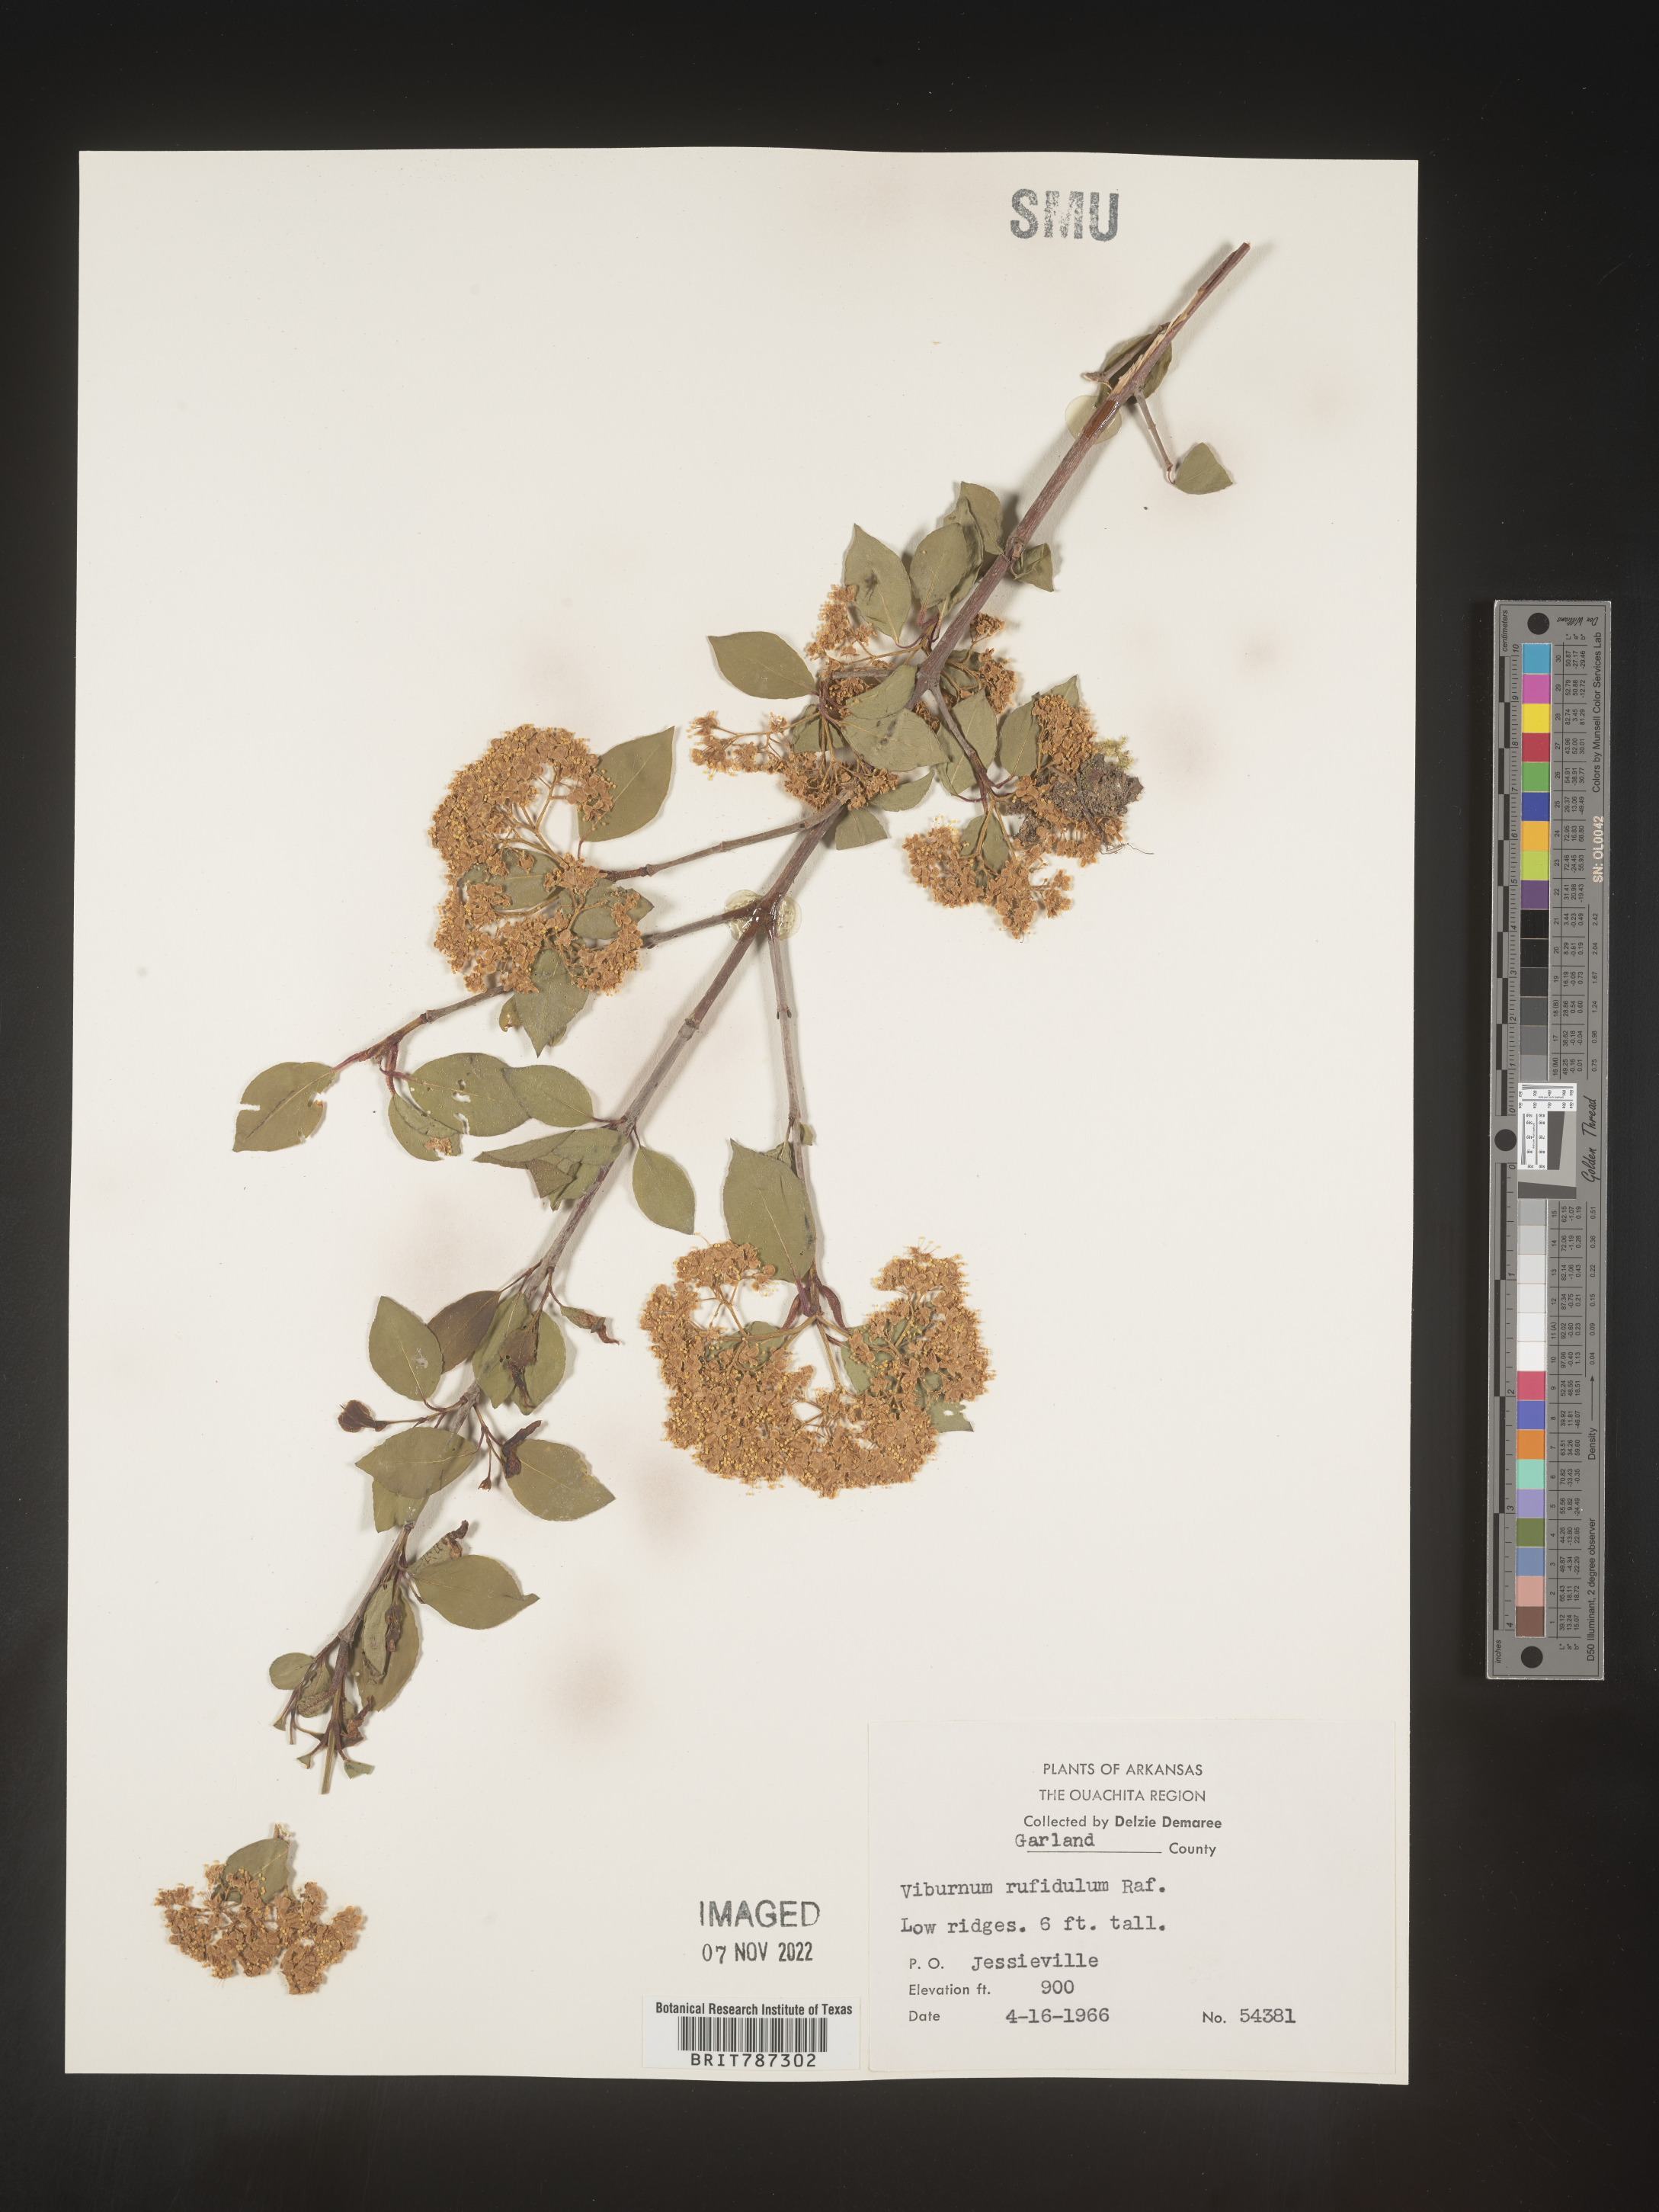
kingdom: Plantae
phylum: Tracheophyta
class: Magnoliopsida
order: Dipsacales
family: Viburnaceae
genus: Viburnum
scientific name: Viburnum rufidulum
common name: Blue haw
